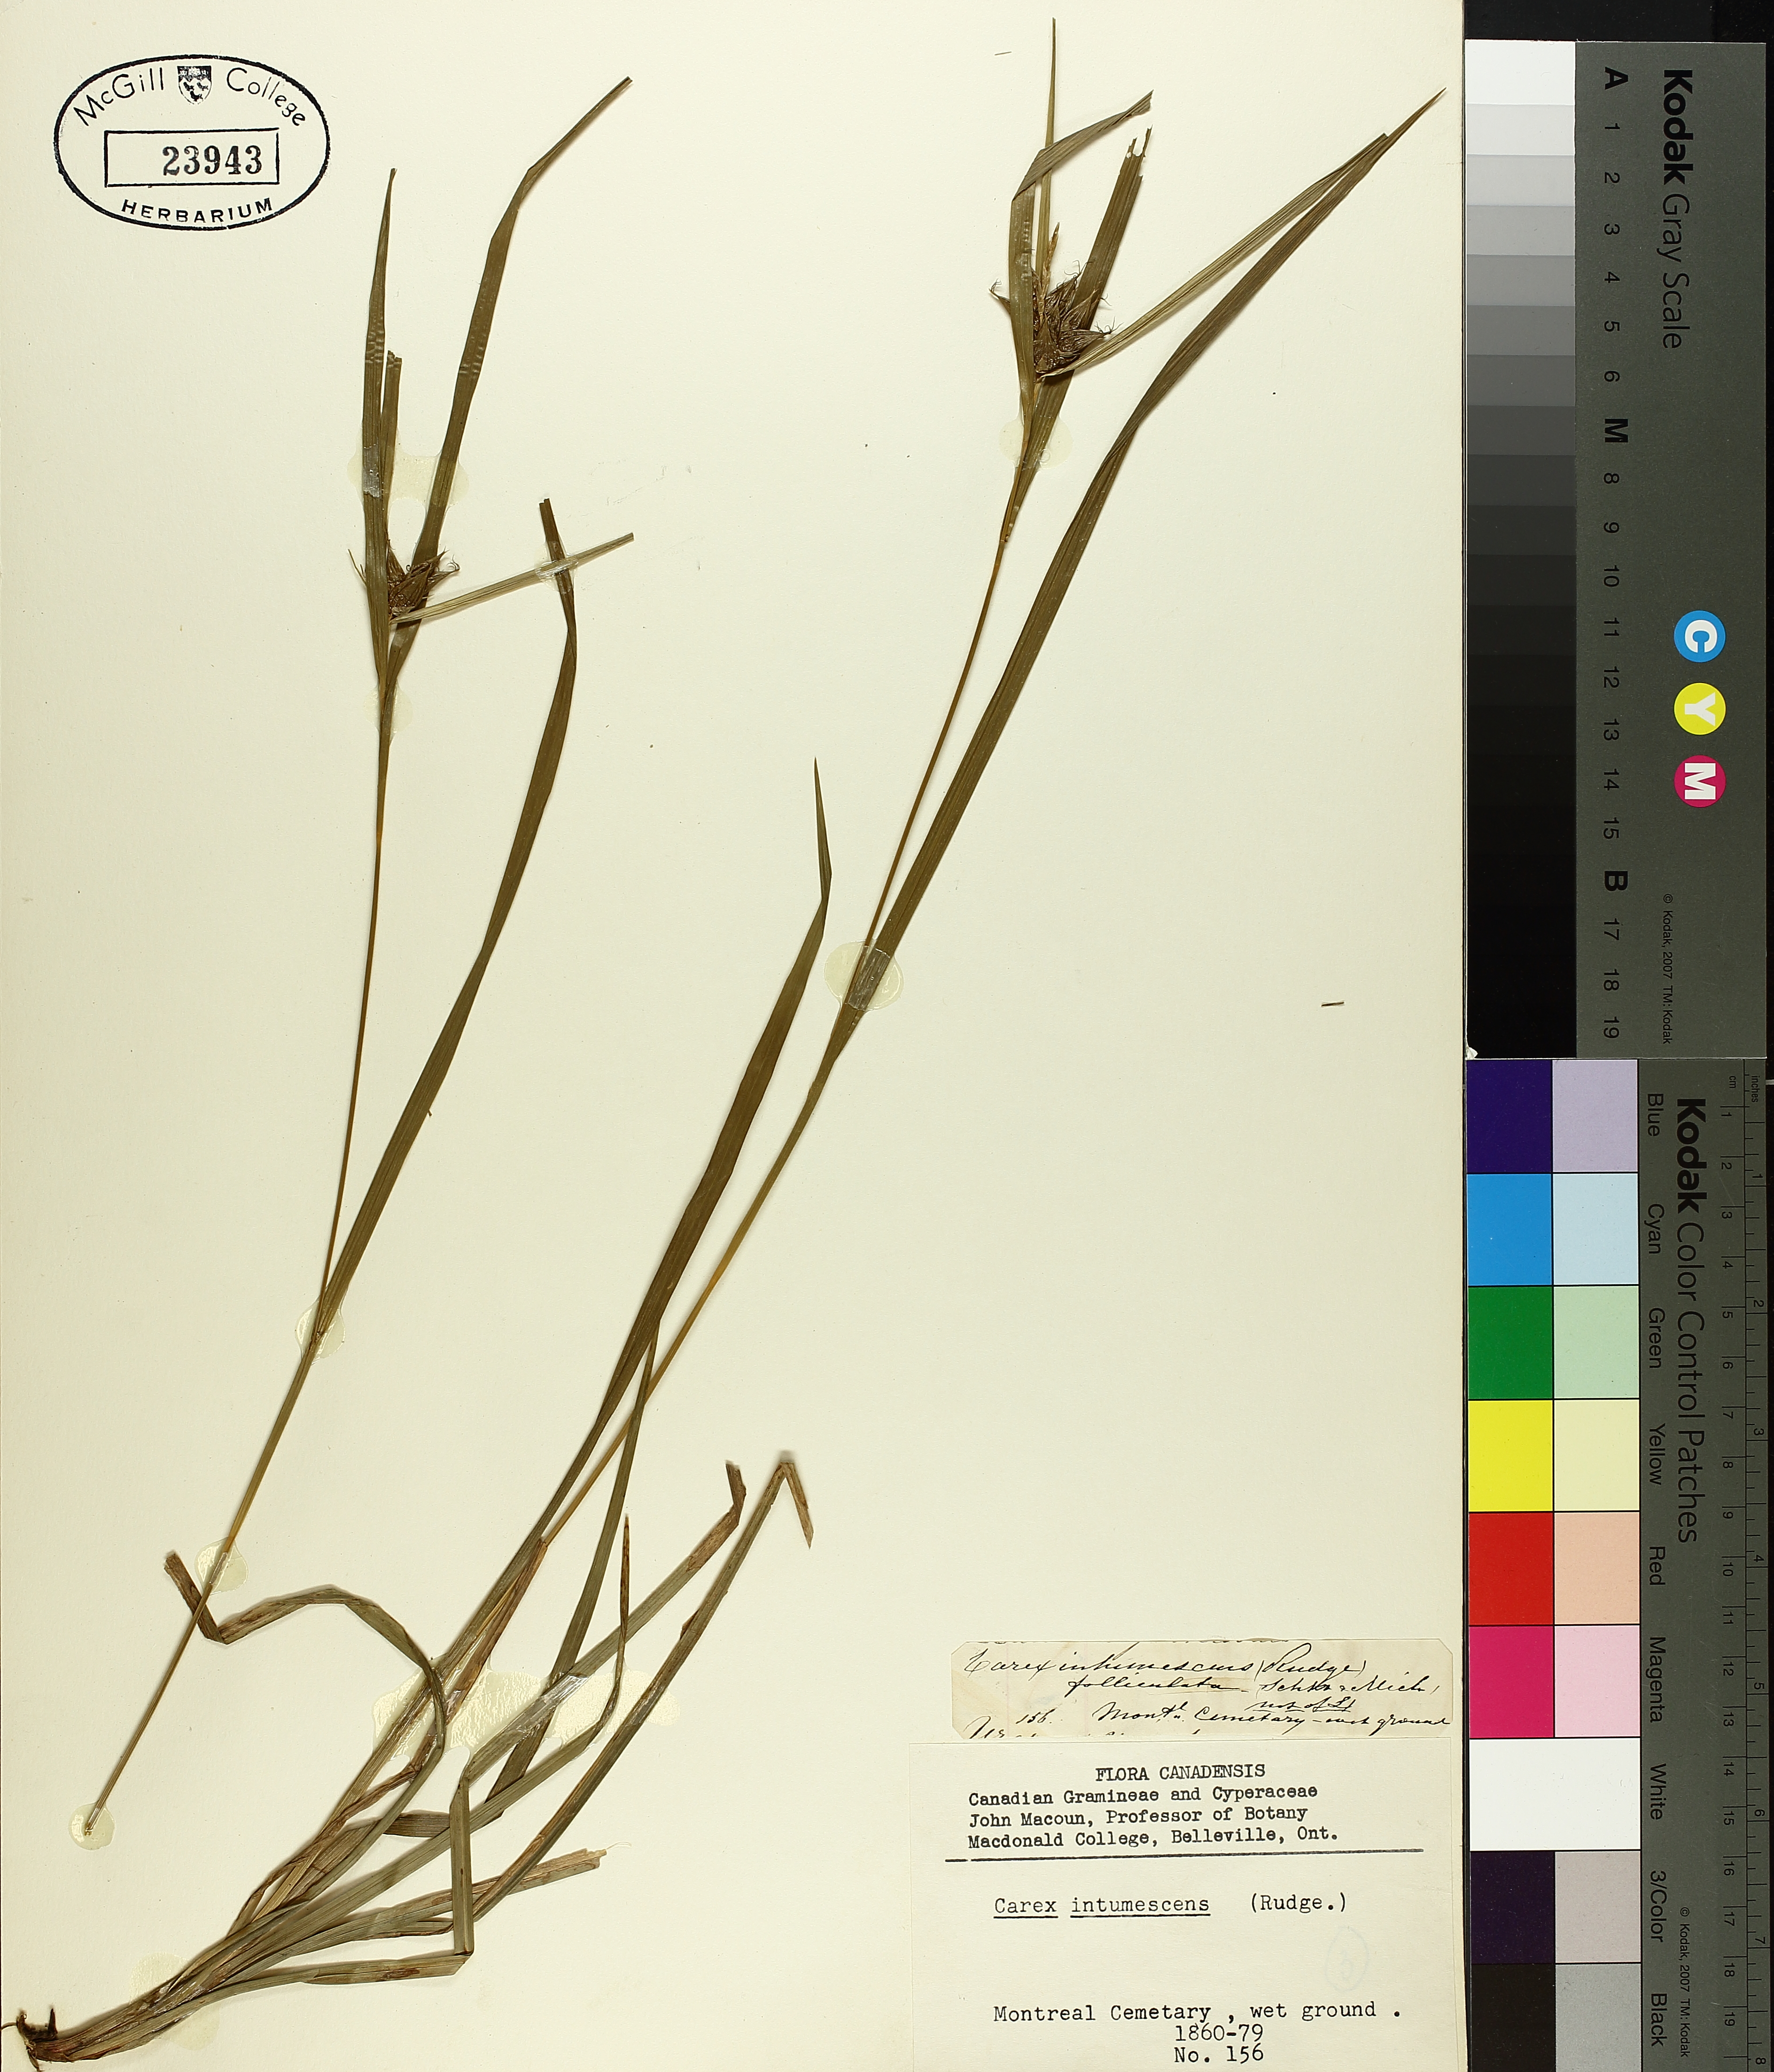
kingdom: Plantae
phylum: Tracheophyta
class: Liliopsida
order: Poales
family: Cyperaceae
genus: Carex
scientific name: Carex intumescens
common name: Greater bladder sedge
